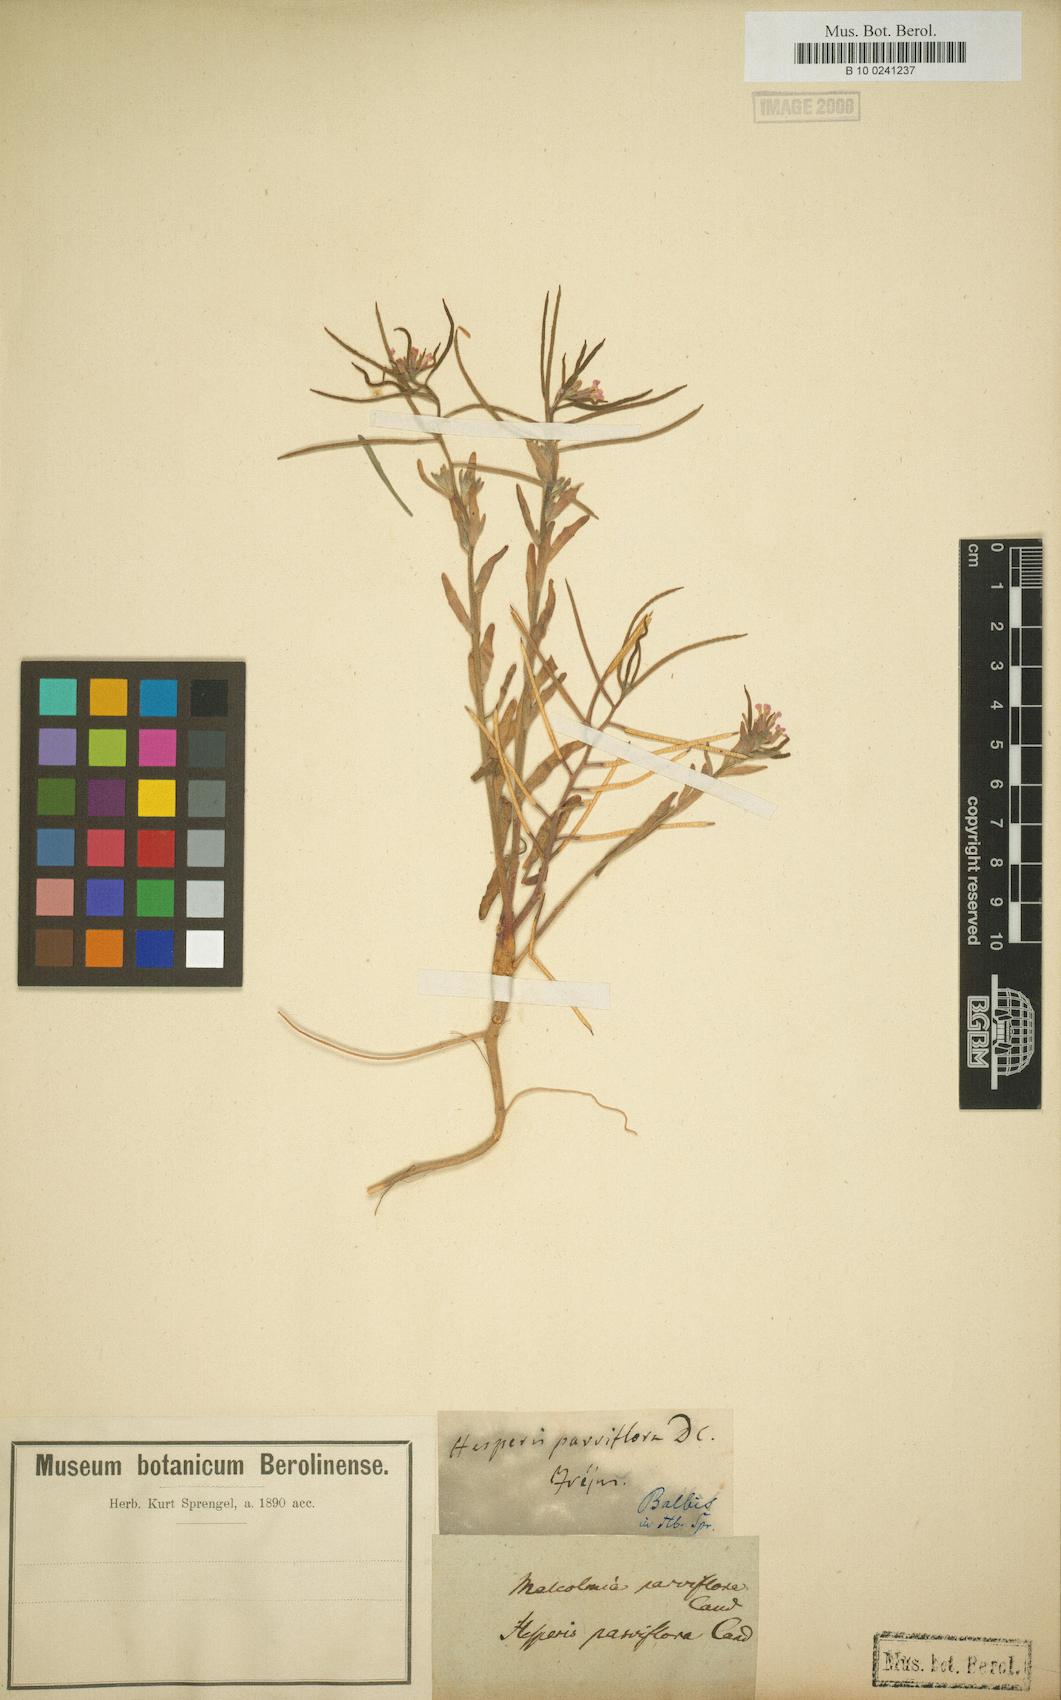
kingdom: Plantae
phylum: Tracheophyta
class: Magnoliopsida
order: Brassicales
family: Brassicaceae
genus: Marcuskochia
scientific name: Marcuskochia ramosissima
